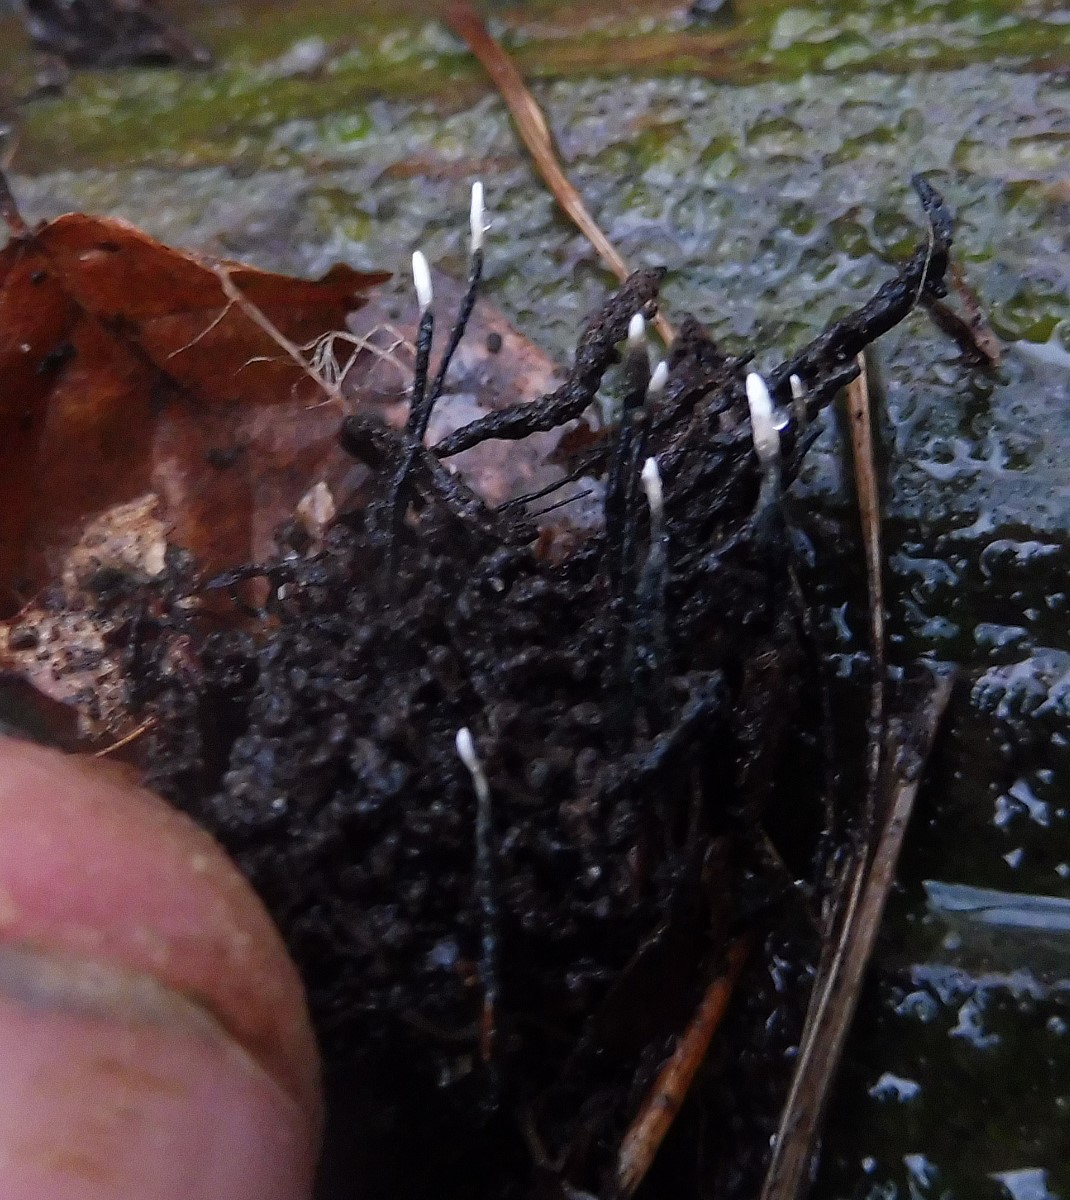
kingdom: Fungi
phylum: Ascomycota
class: Sordariomycetes
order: Xylariales
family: Xylariaceae
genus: Xylaria
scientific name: Xylaria carpophila
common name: bogskål-stødsvamp
